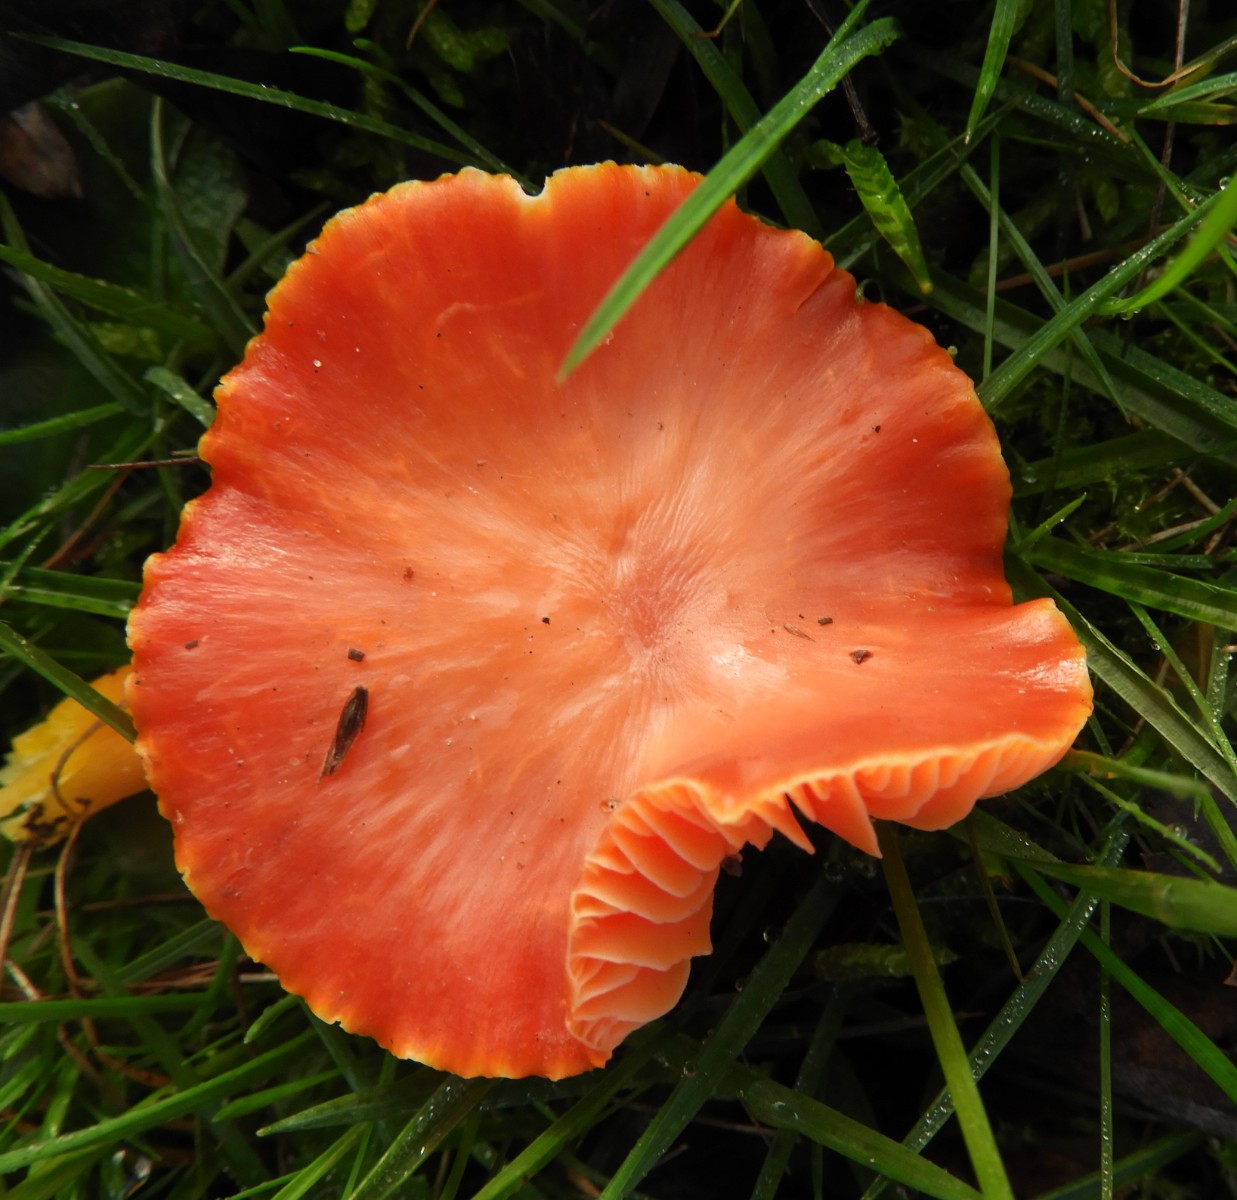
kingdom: Fungi
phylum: Basidiomycota
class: Agaricomycetes
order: Agaricales
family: Hygrophoraceae
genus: Hygrocybe
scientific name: Hygrocybe coccinea
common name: cinnober-vokshat
